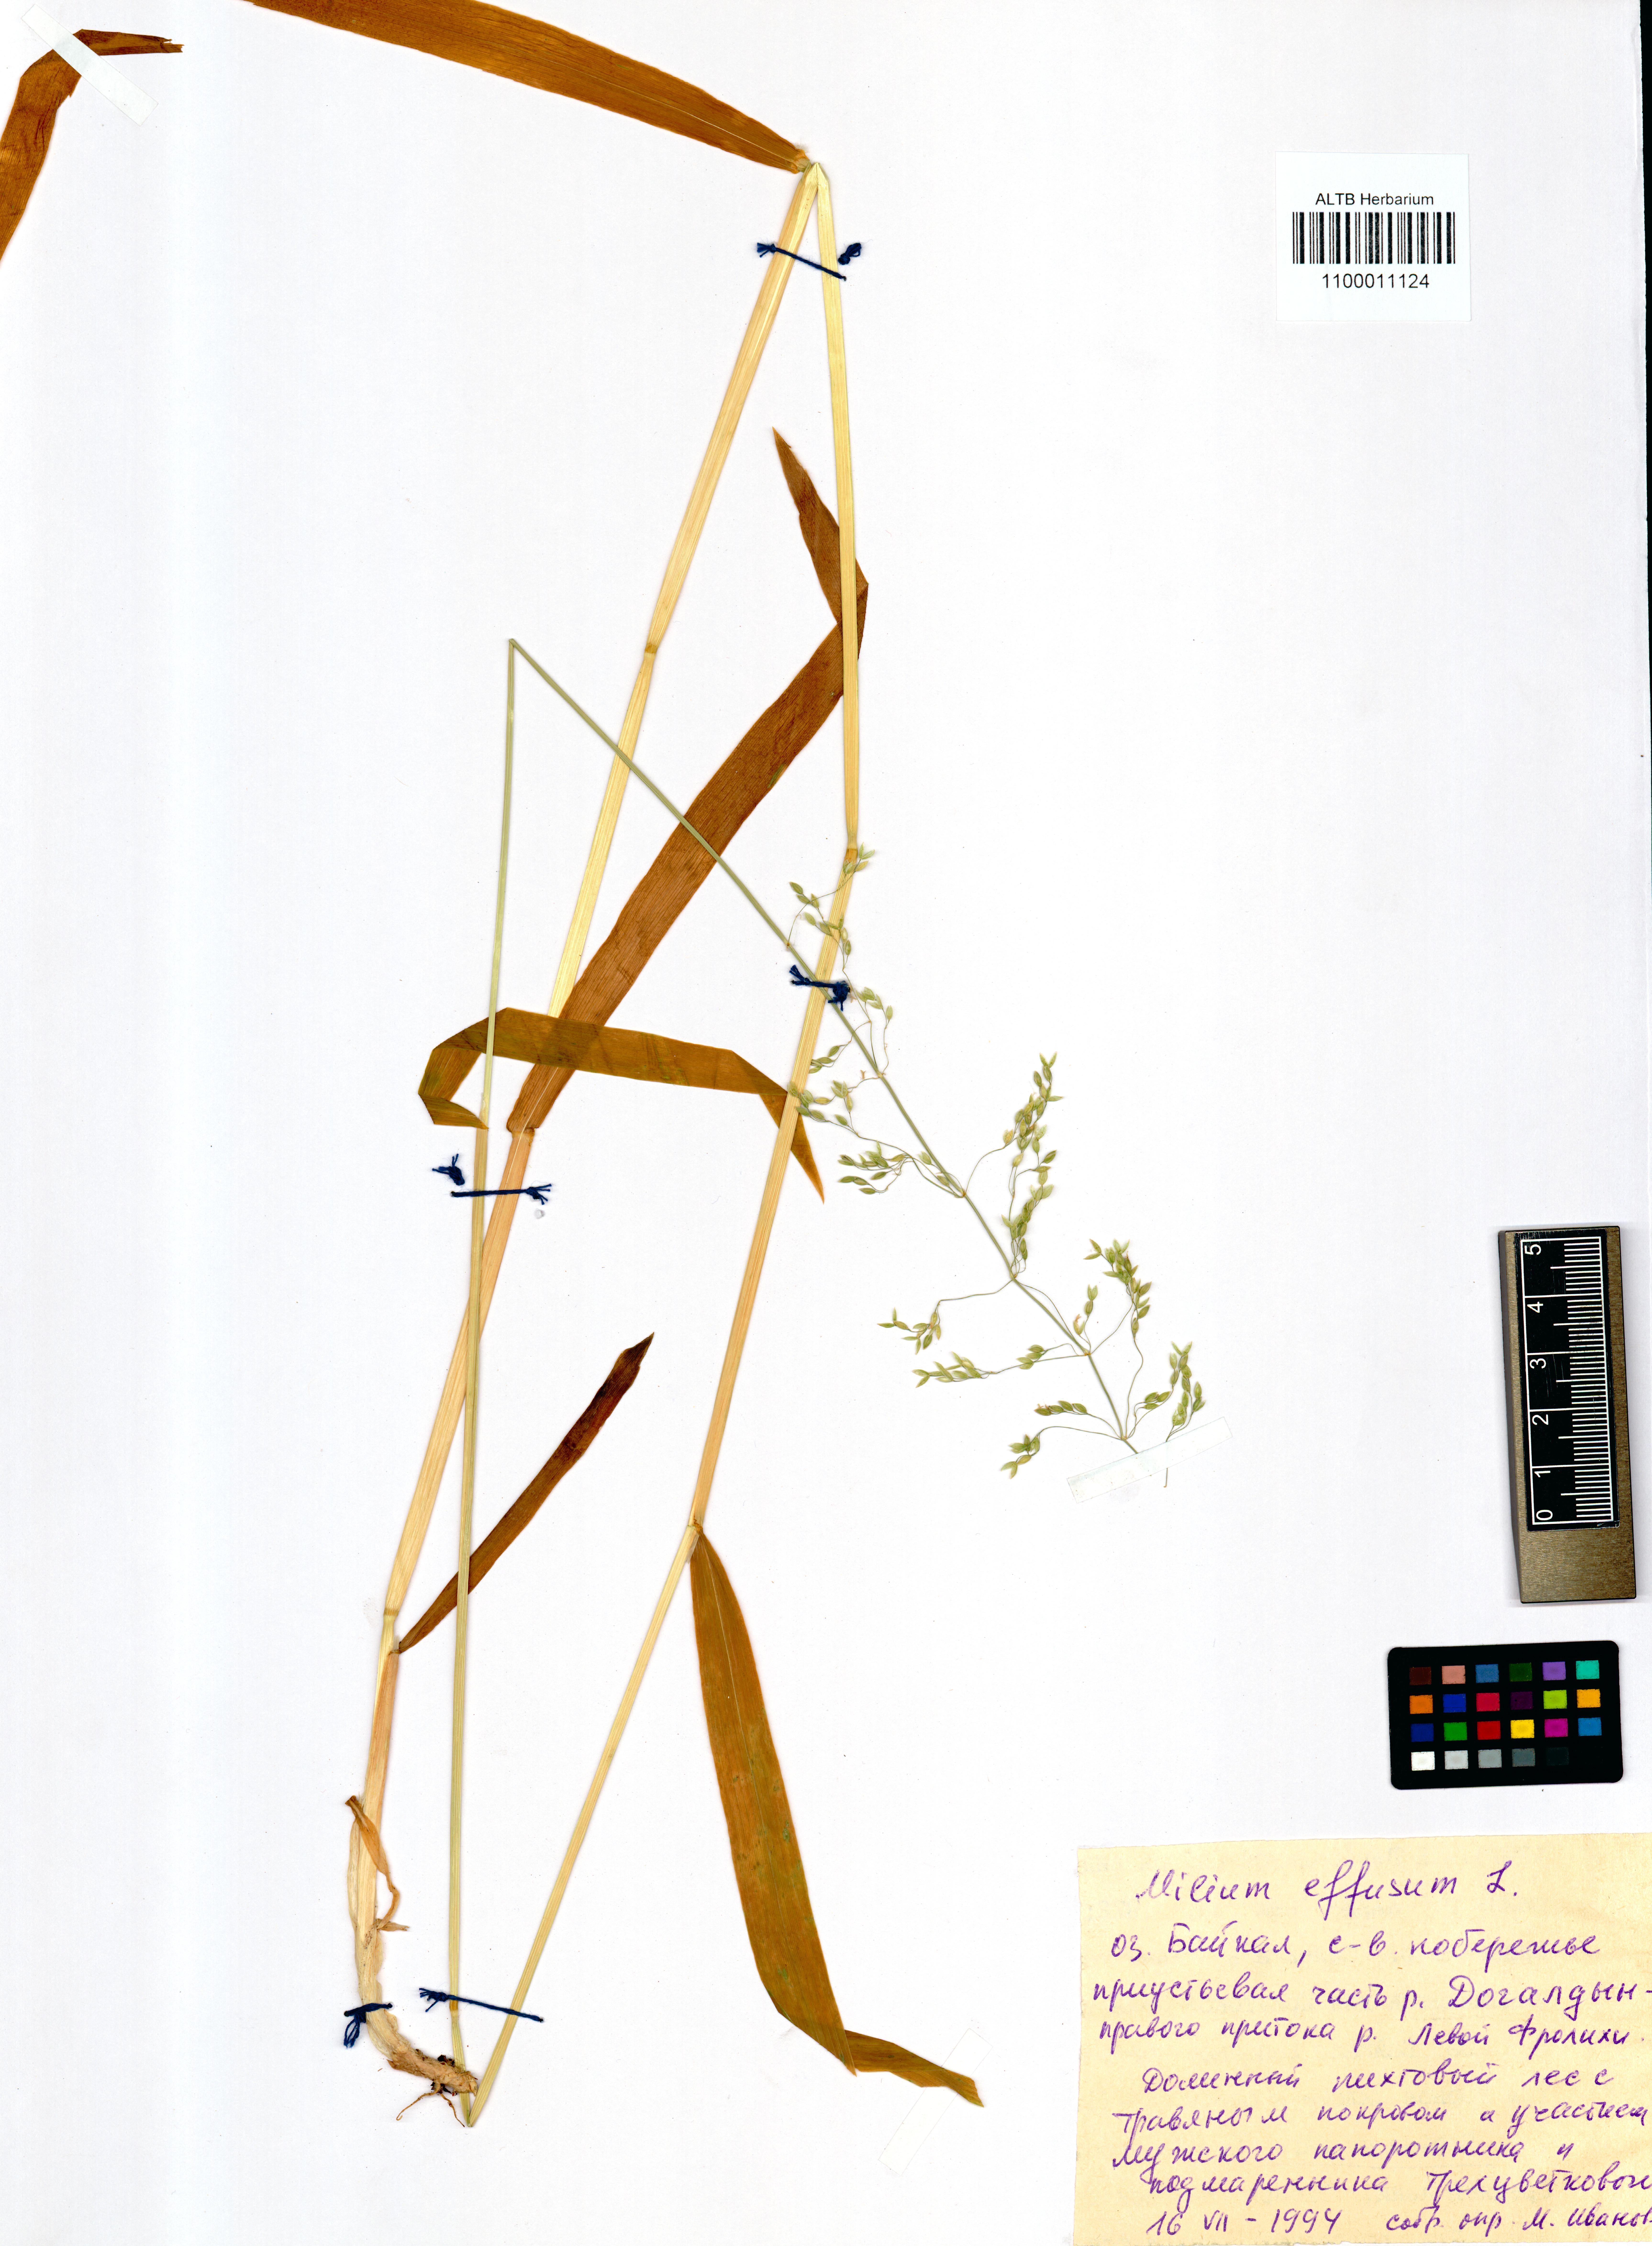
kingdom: Plantae
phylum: Tracheophyta
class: Liliopsida
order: Poales
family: Poaceae
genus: Milium
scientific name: Milium effusum
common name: Wood millet
